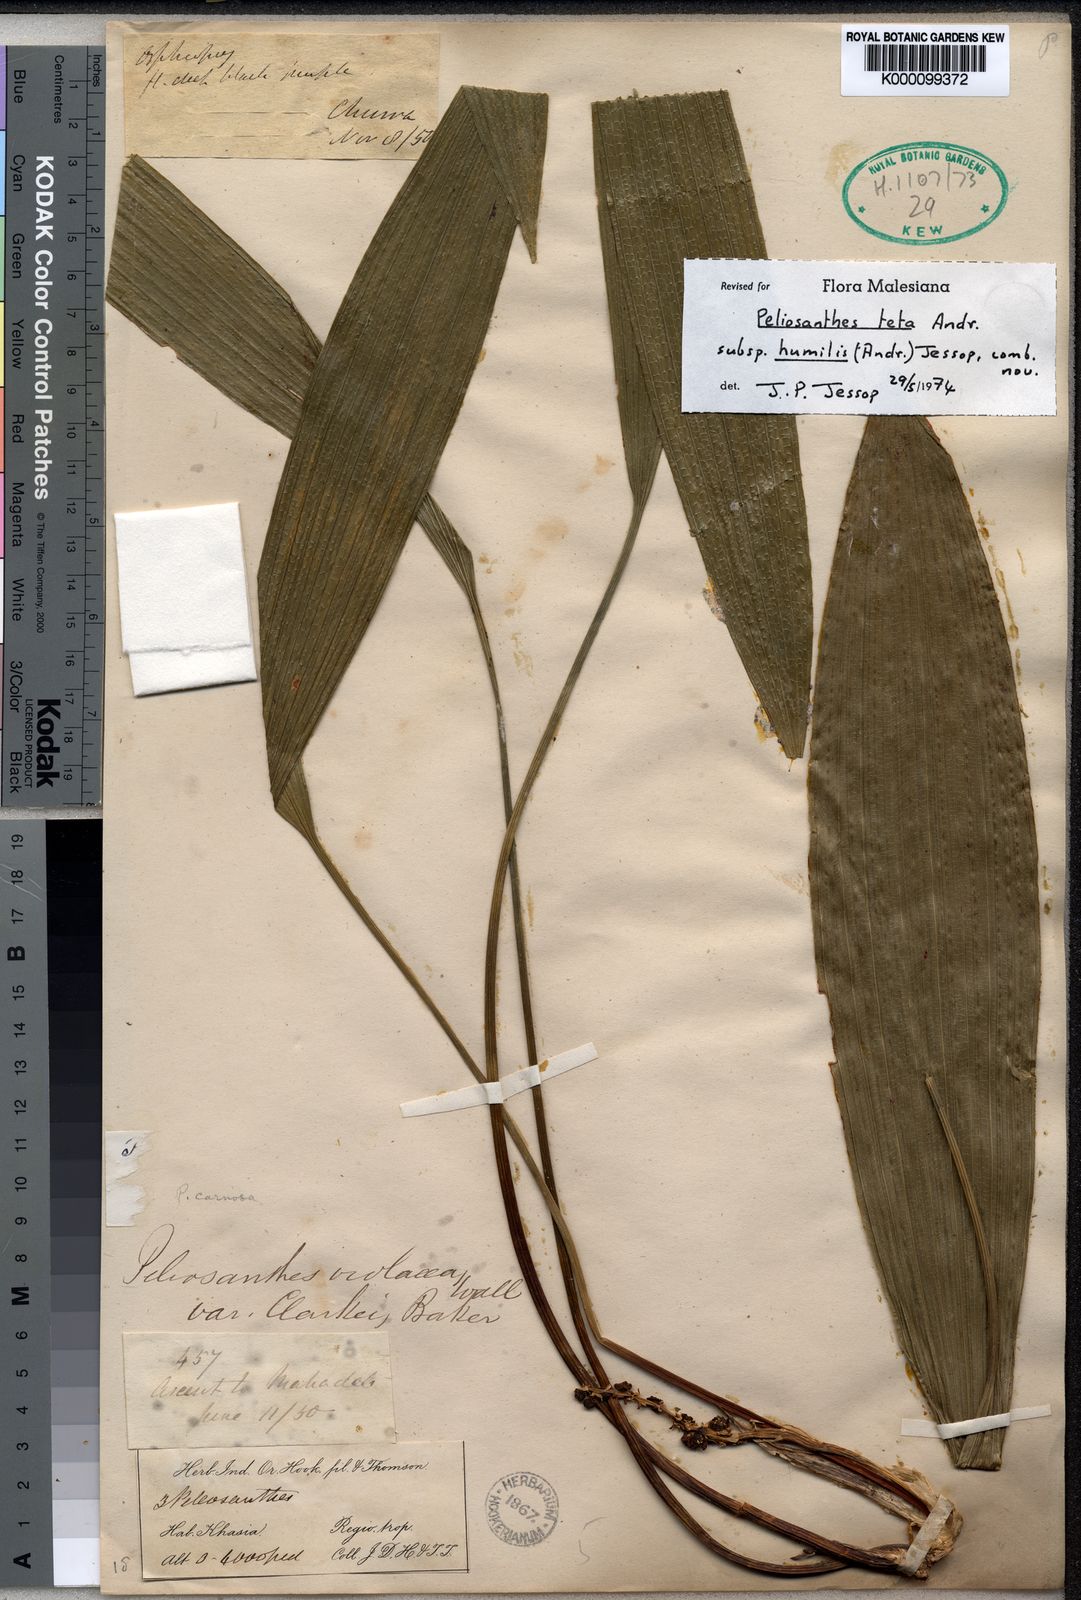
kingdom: Plantae
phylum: Tracheophyta
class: Liliopsida
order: Asparagales
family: Asparagaceae
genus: Peliosanthes
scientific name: Peliosanthes teta
